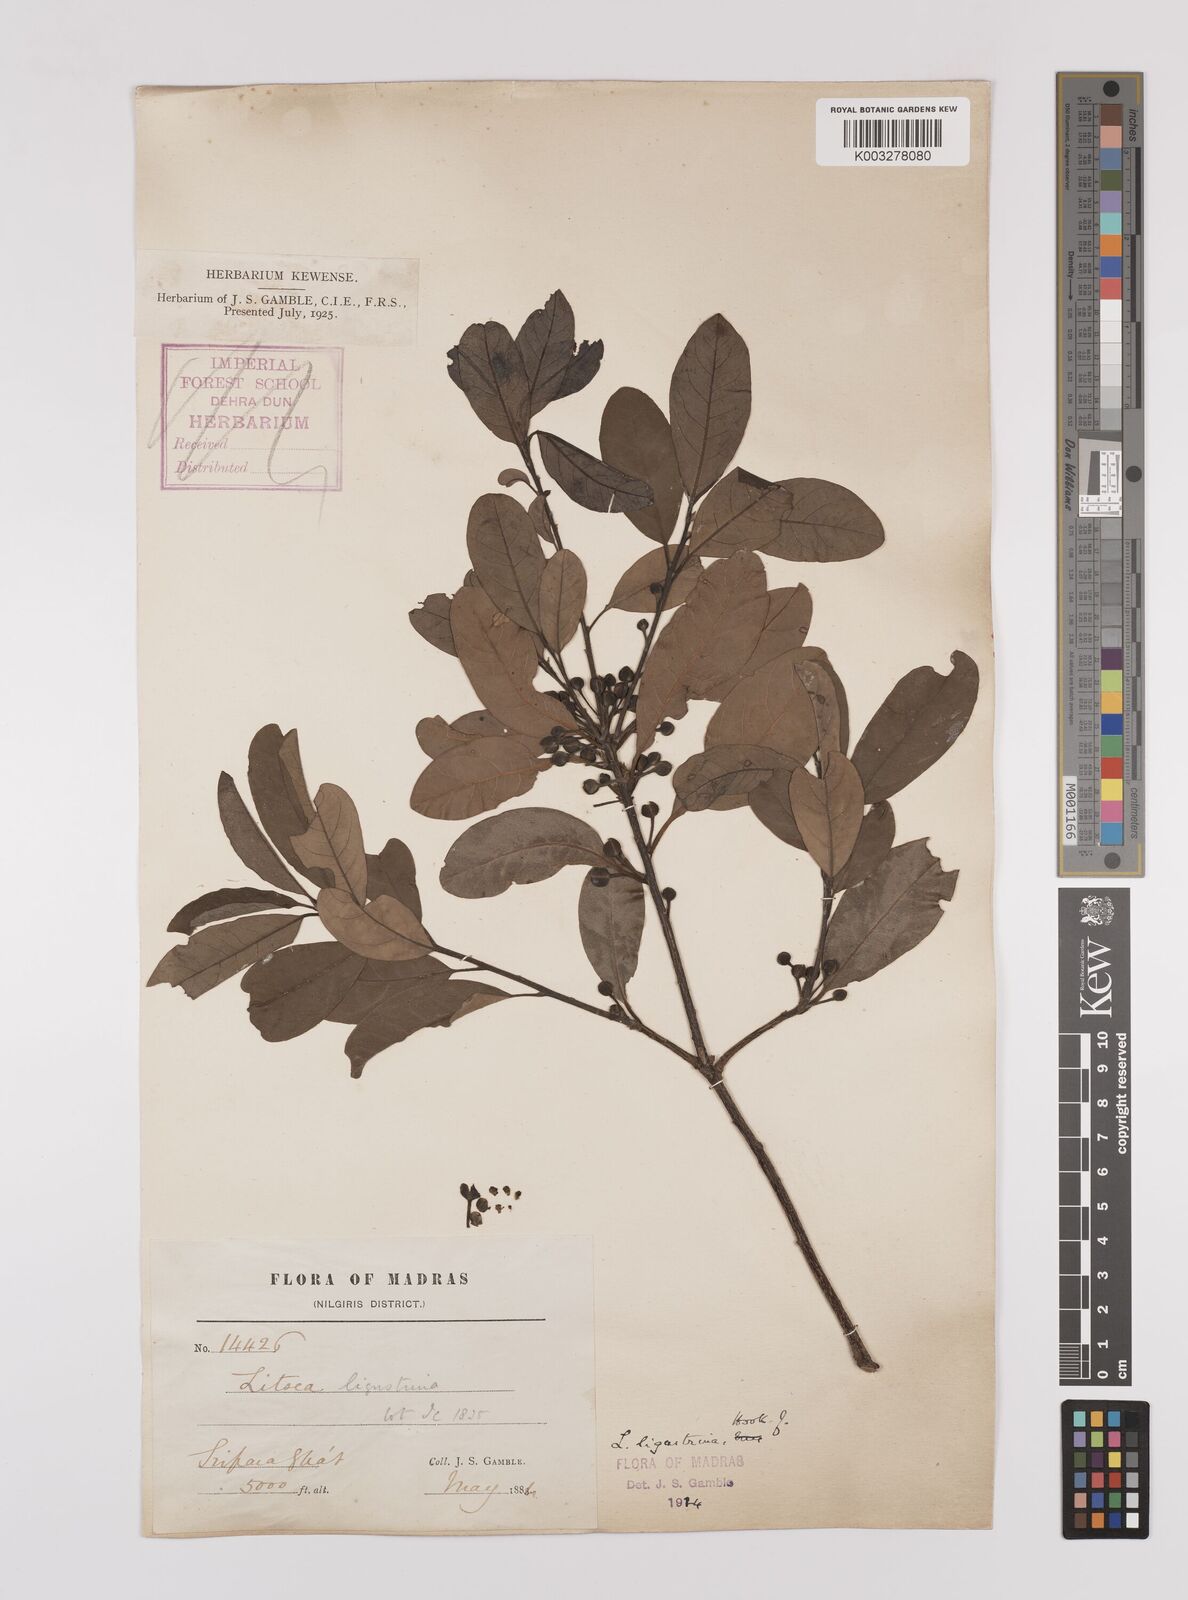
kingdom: Plantae
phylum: Tracheophyta
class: Magnoliopsida
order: Laurales
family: Lauraceae
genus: Litsea
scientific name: Litsea ligustrina
